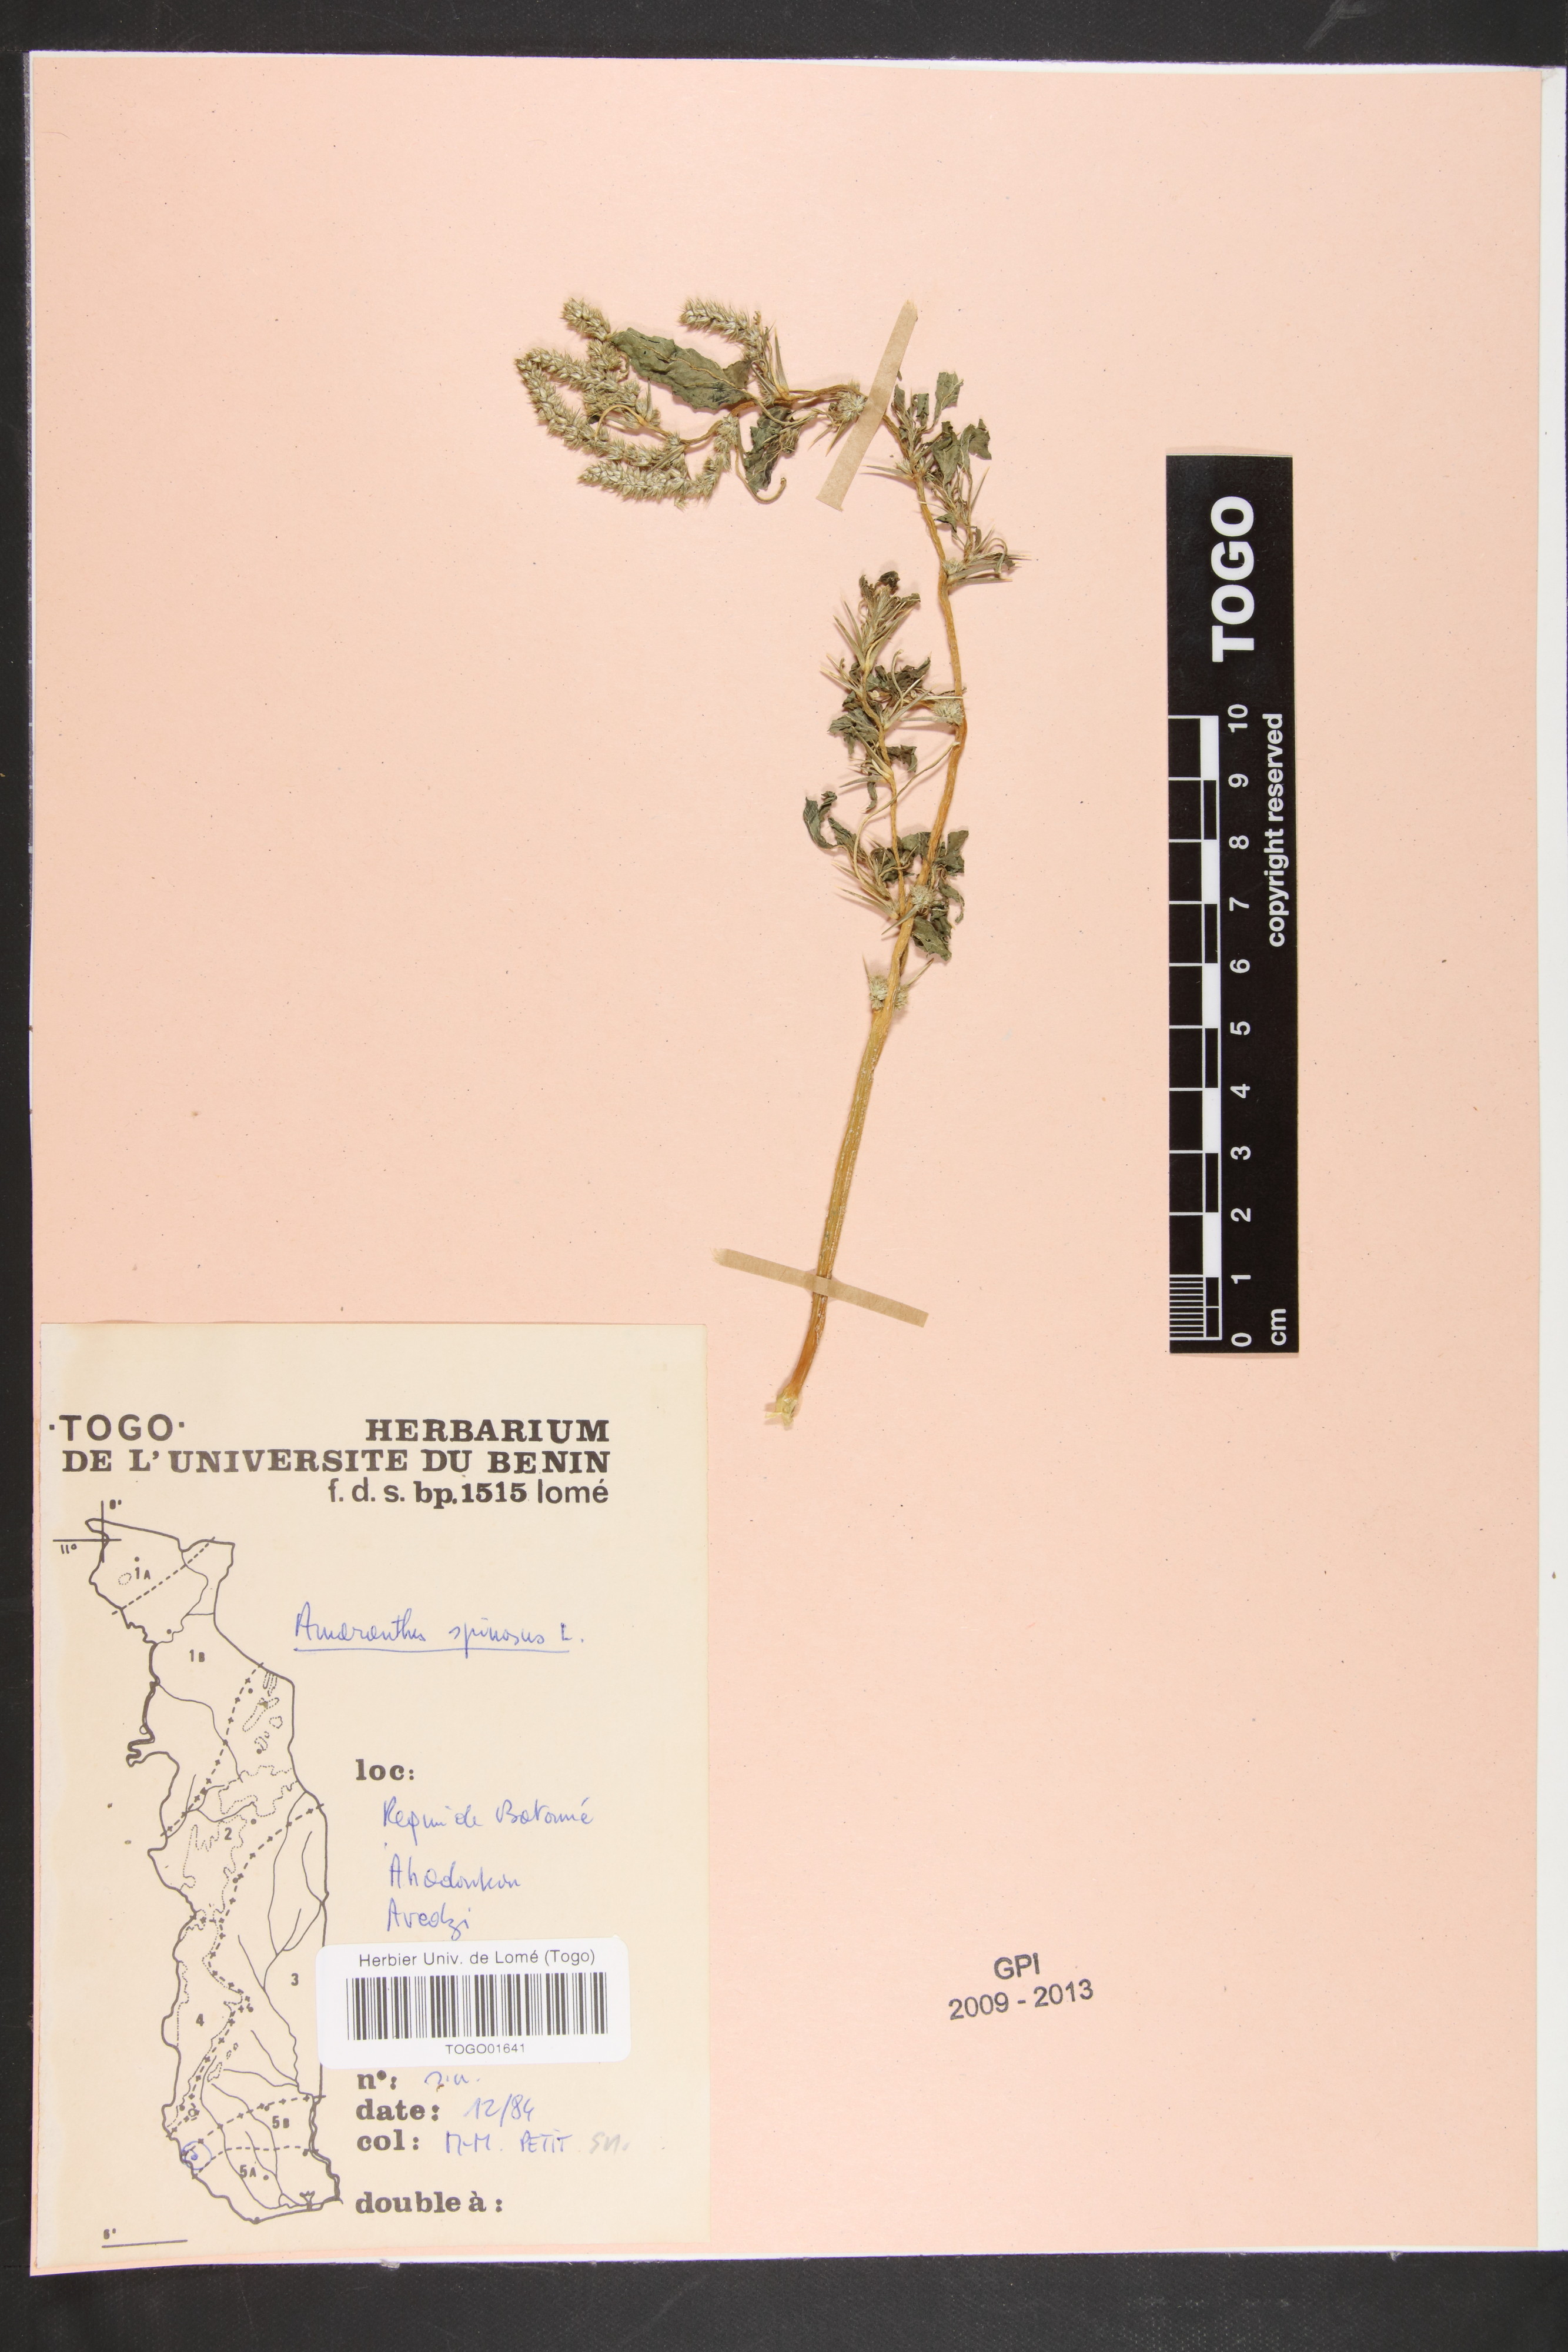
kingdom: Plantae
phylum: Tracheophyta
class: Magnoliopsida
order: Caryophyllales
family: Amaranthaceae
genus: Amaranthus
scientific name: Amaranthus spinosus
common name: Spiny amaranth
